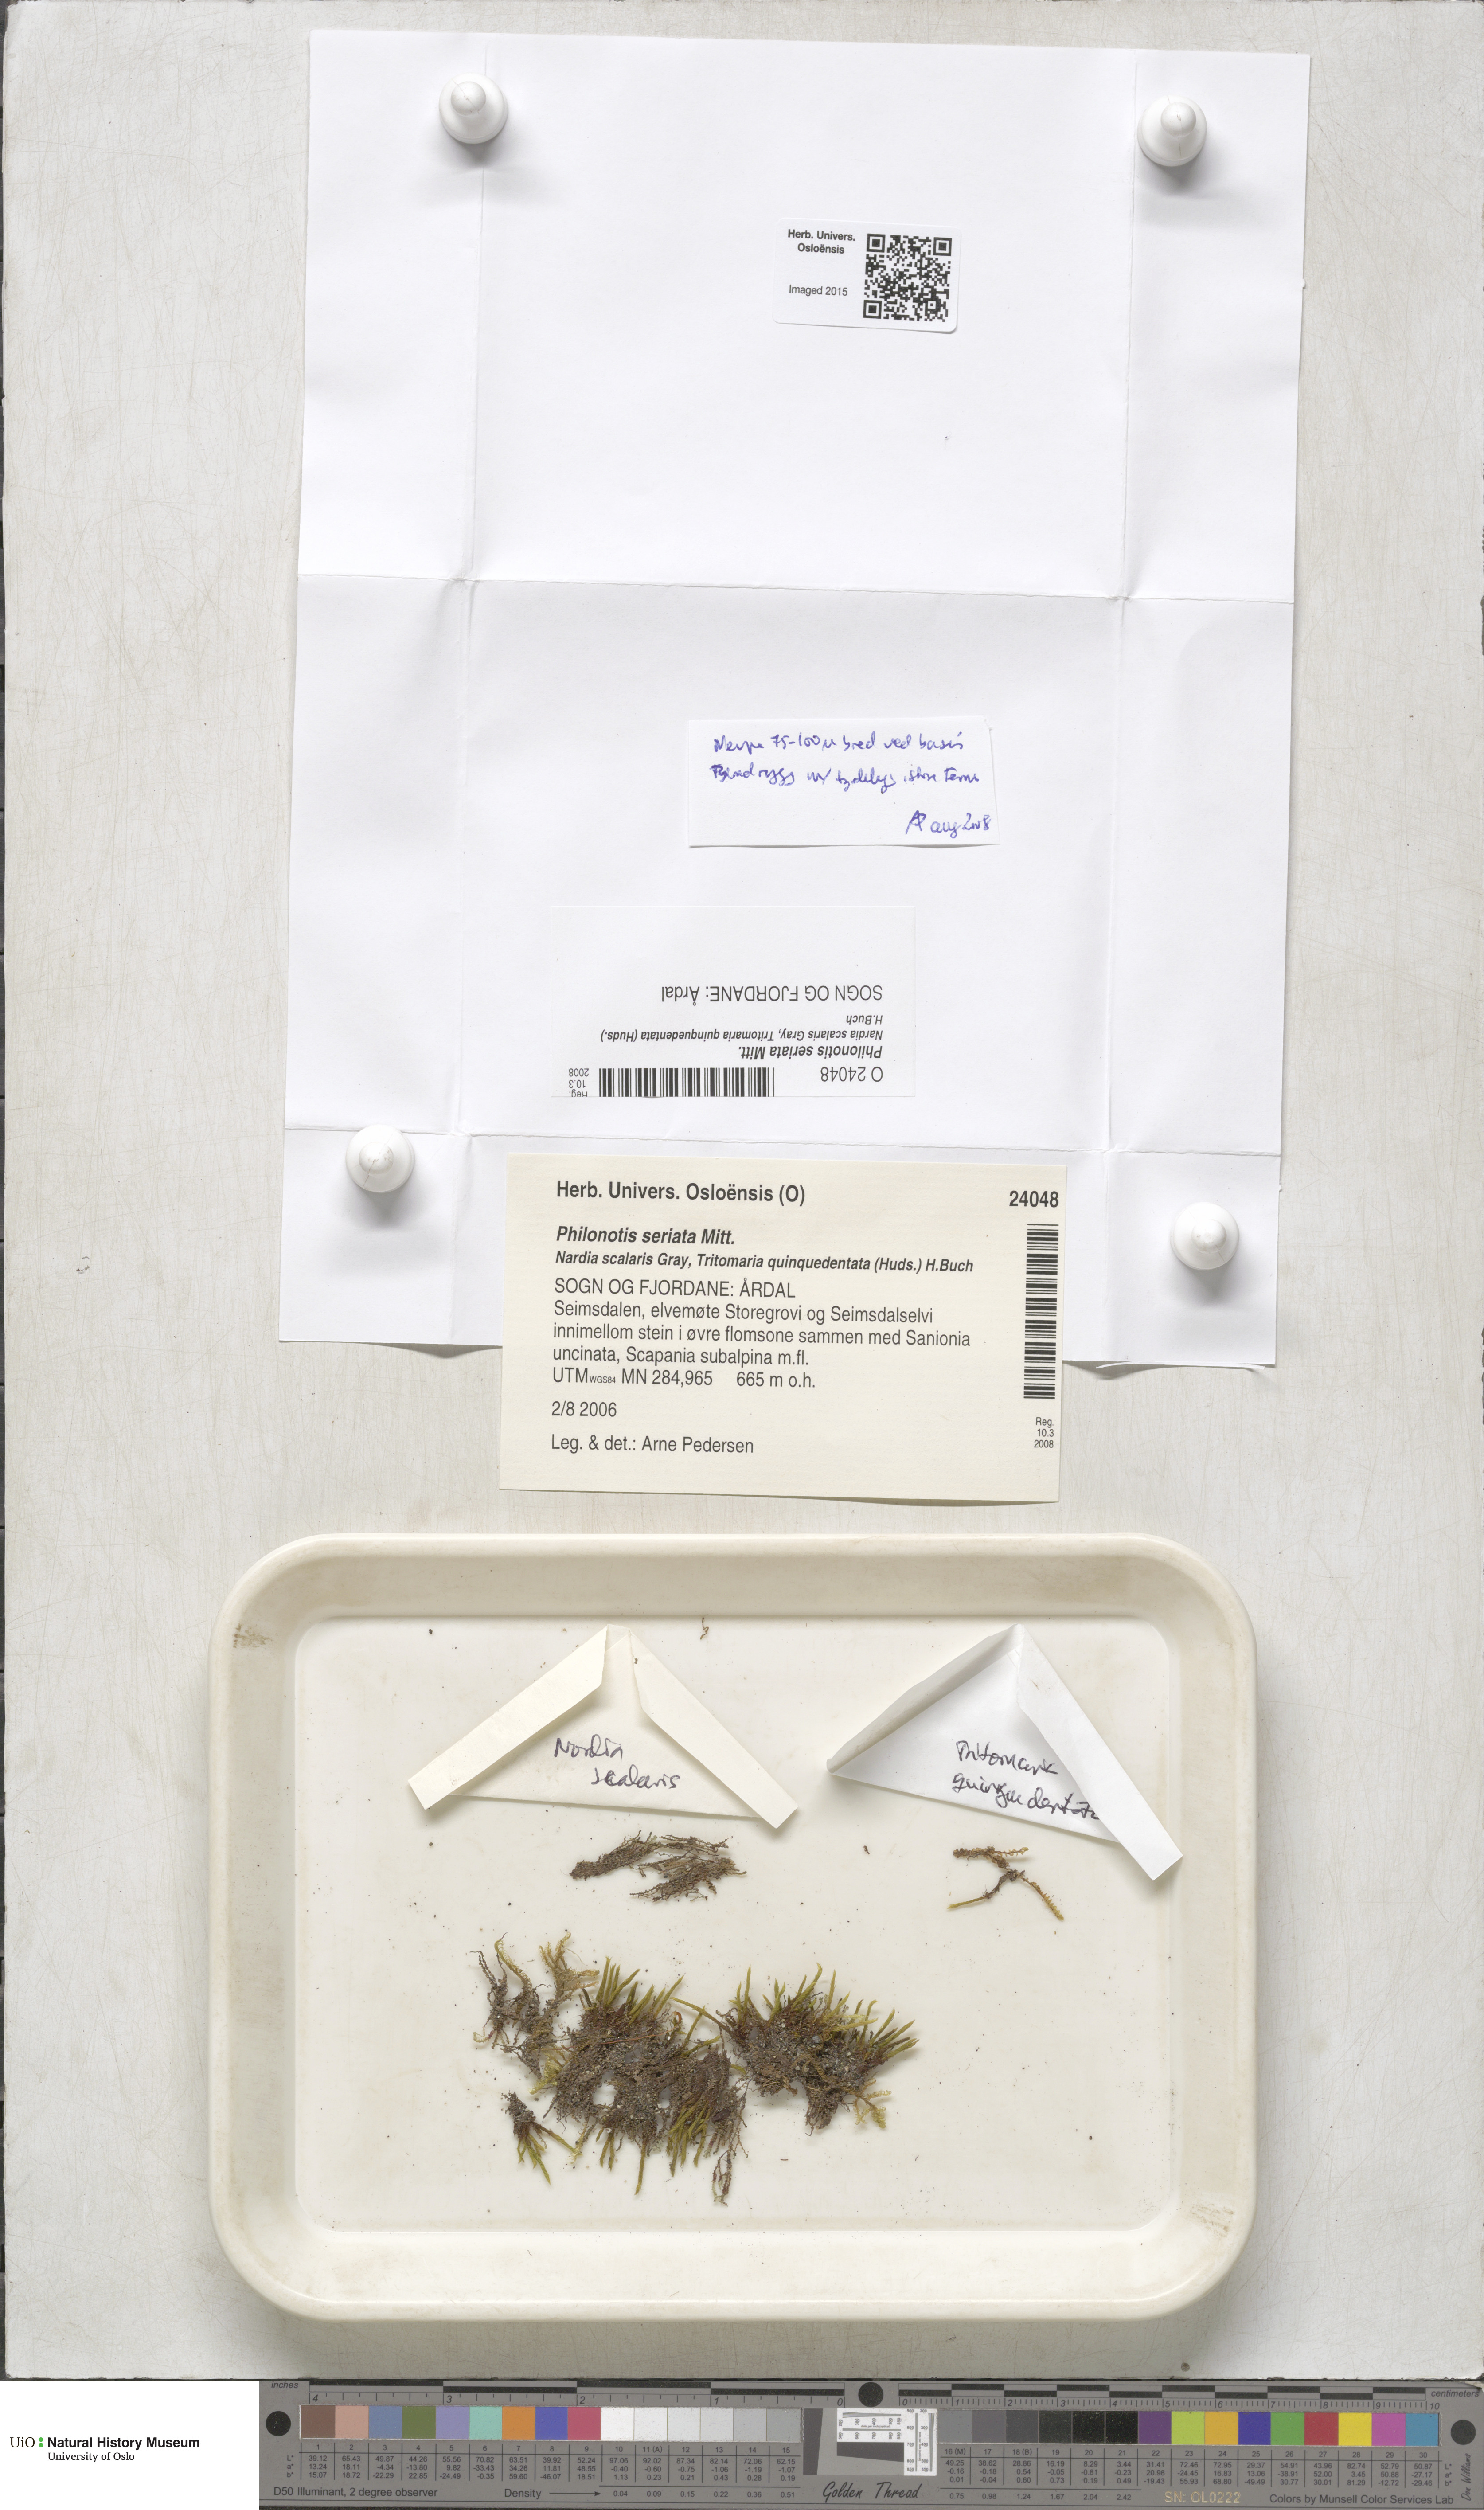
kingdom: Plantae
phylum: Bryophyta
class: Bryopsida
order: Bartramiales
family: Bartramiaceae
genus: Philonotis
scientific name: Philonotis seriata
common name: Spiral apple-moss
